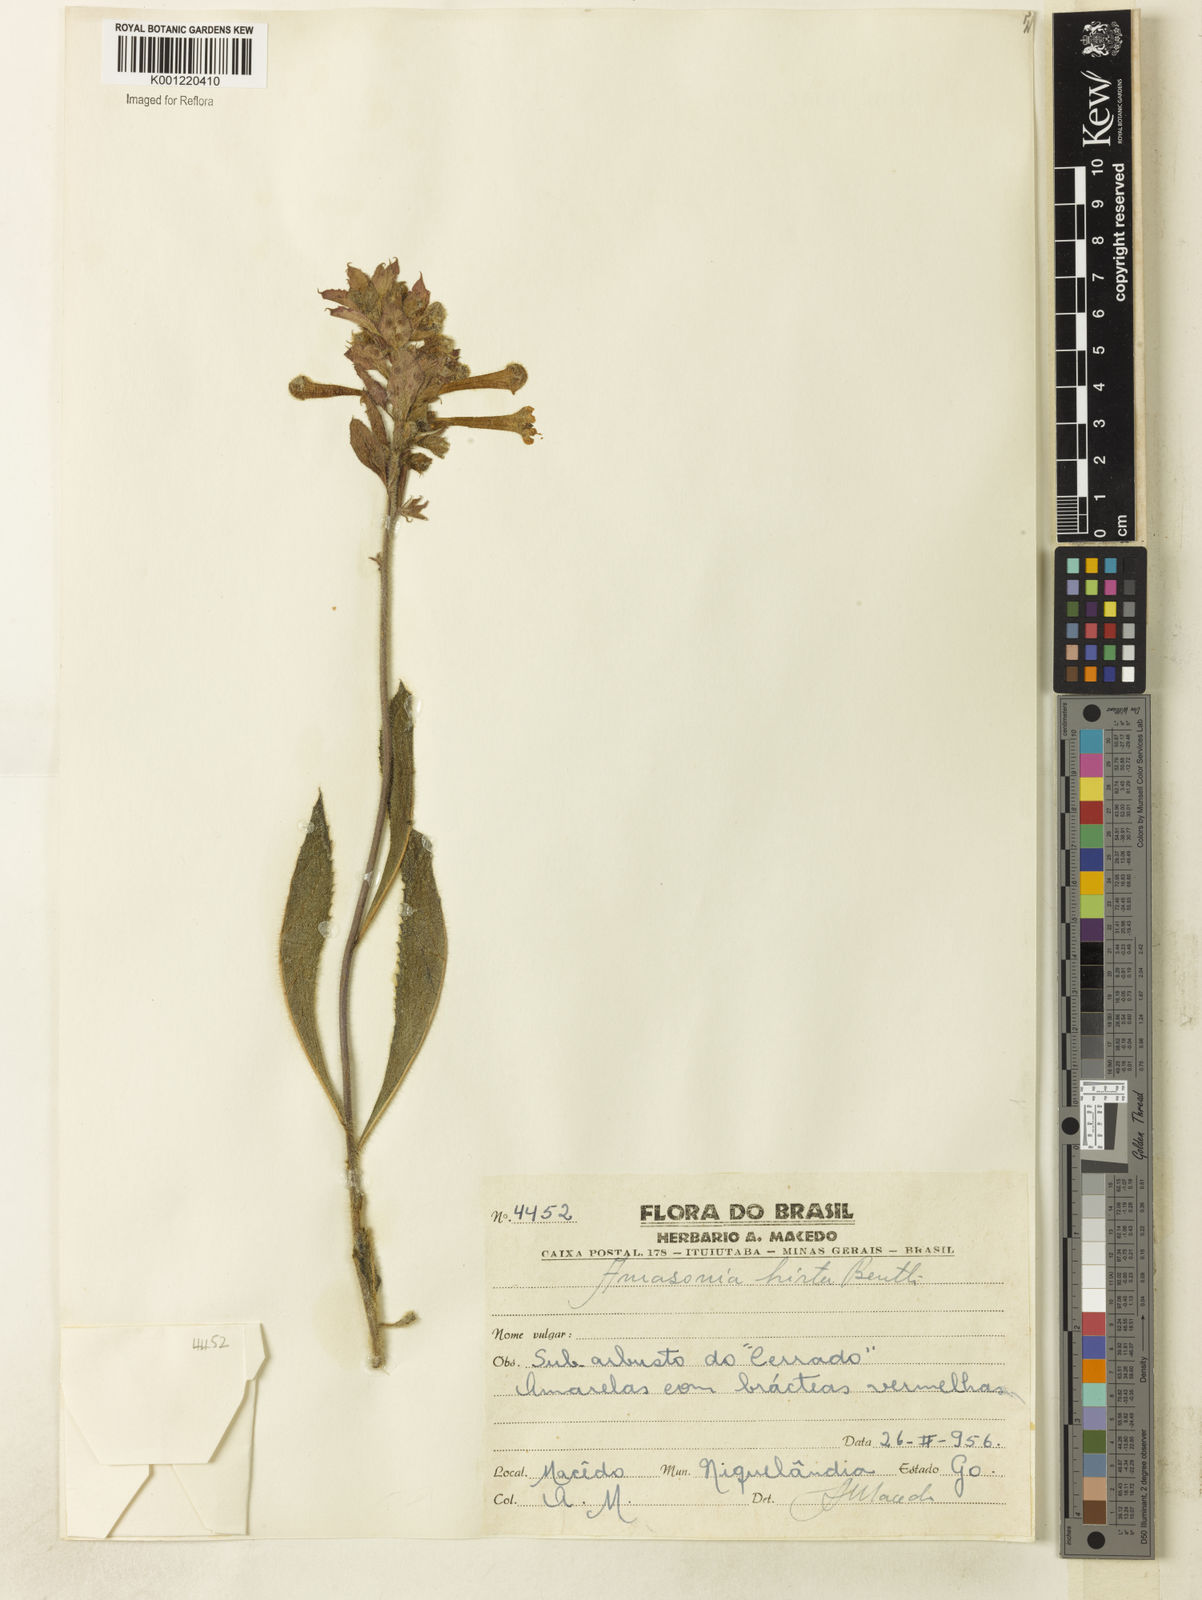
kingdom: Plantae
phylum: Tracheophyta
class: Magnoliopsida
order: Lamiales
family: Lamiaceae
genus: Amasonia
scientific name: Amasonia hirta
